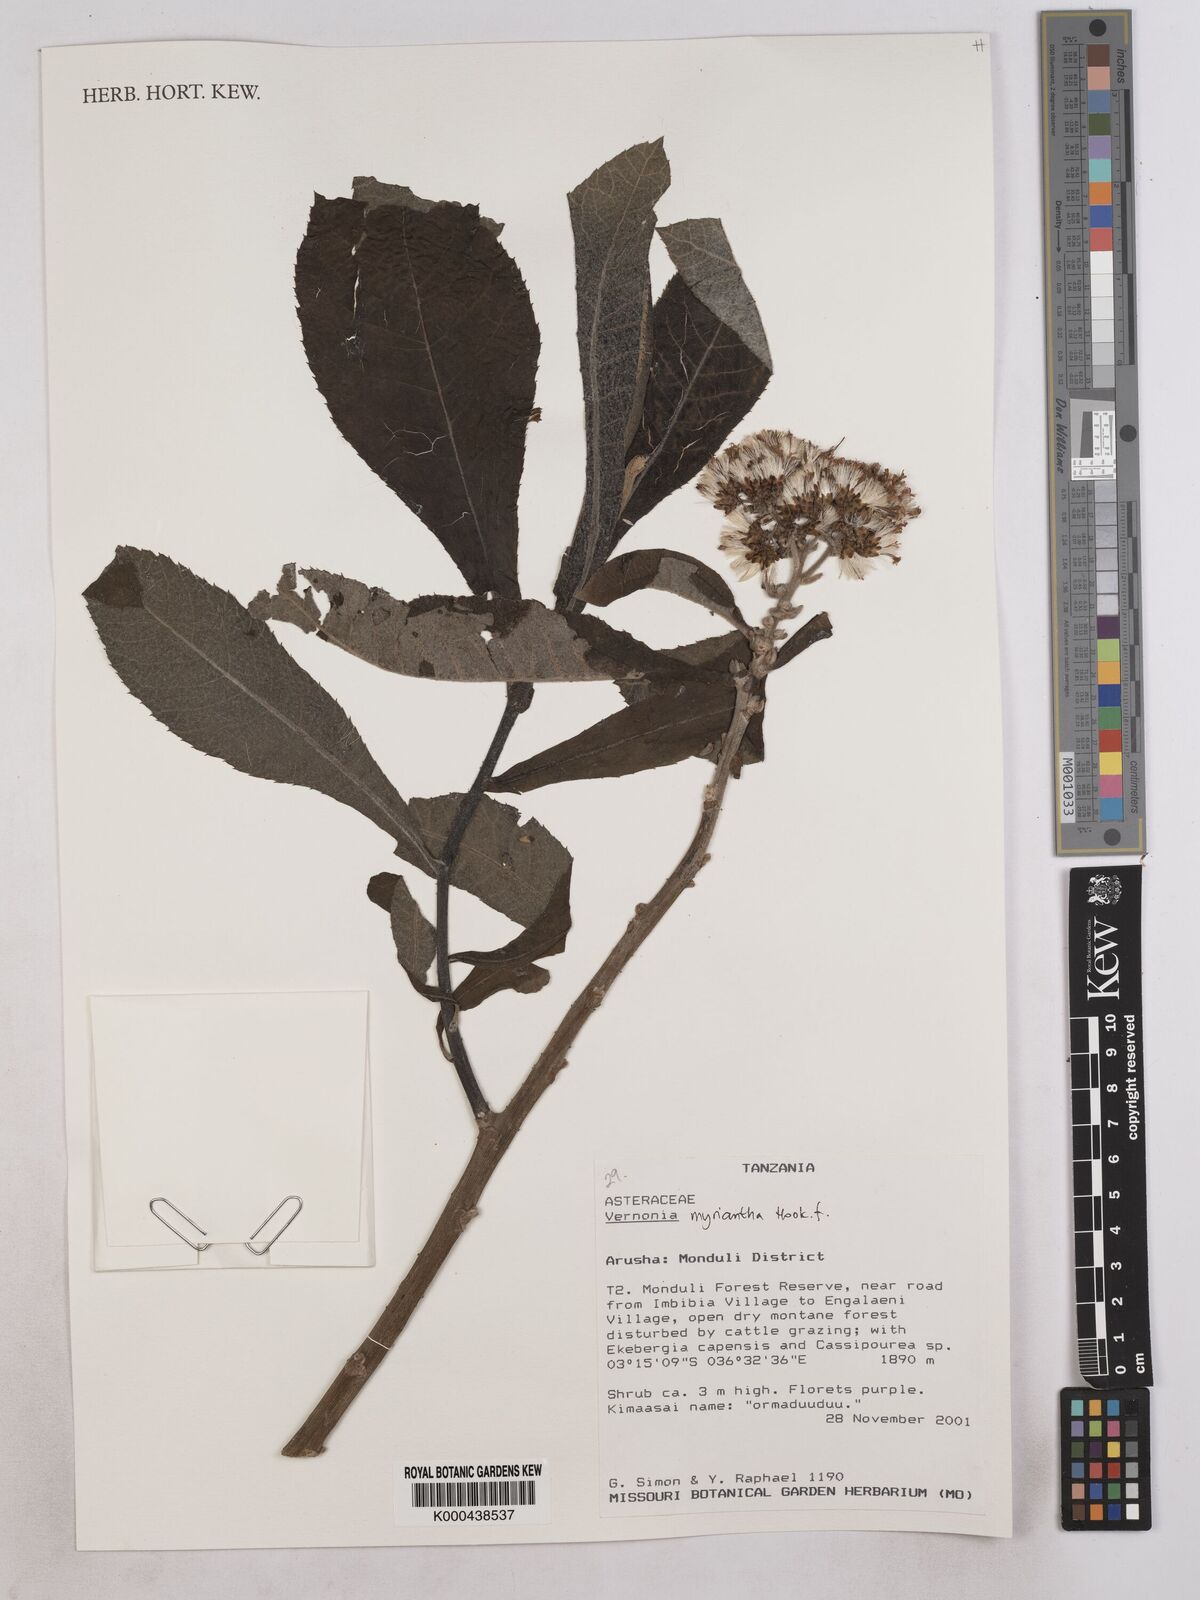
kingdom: Plantae
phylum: Tracheophyta
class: Magnoliopsida
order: Asterales
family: Asteraceae
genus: Gymnanthemum
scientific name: Gymnanthemum myrianthum
